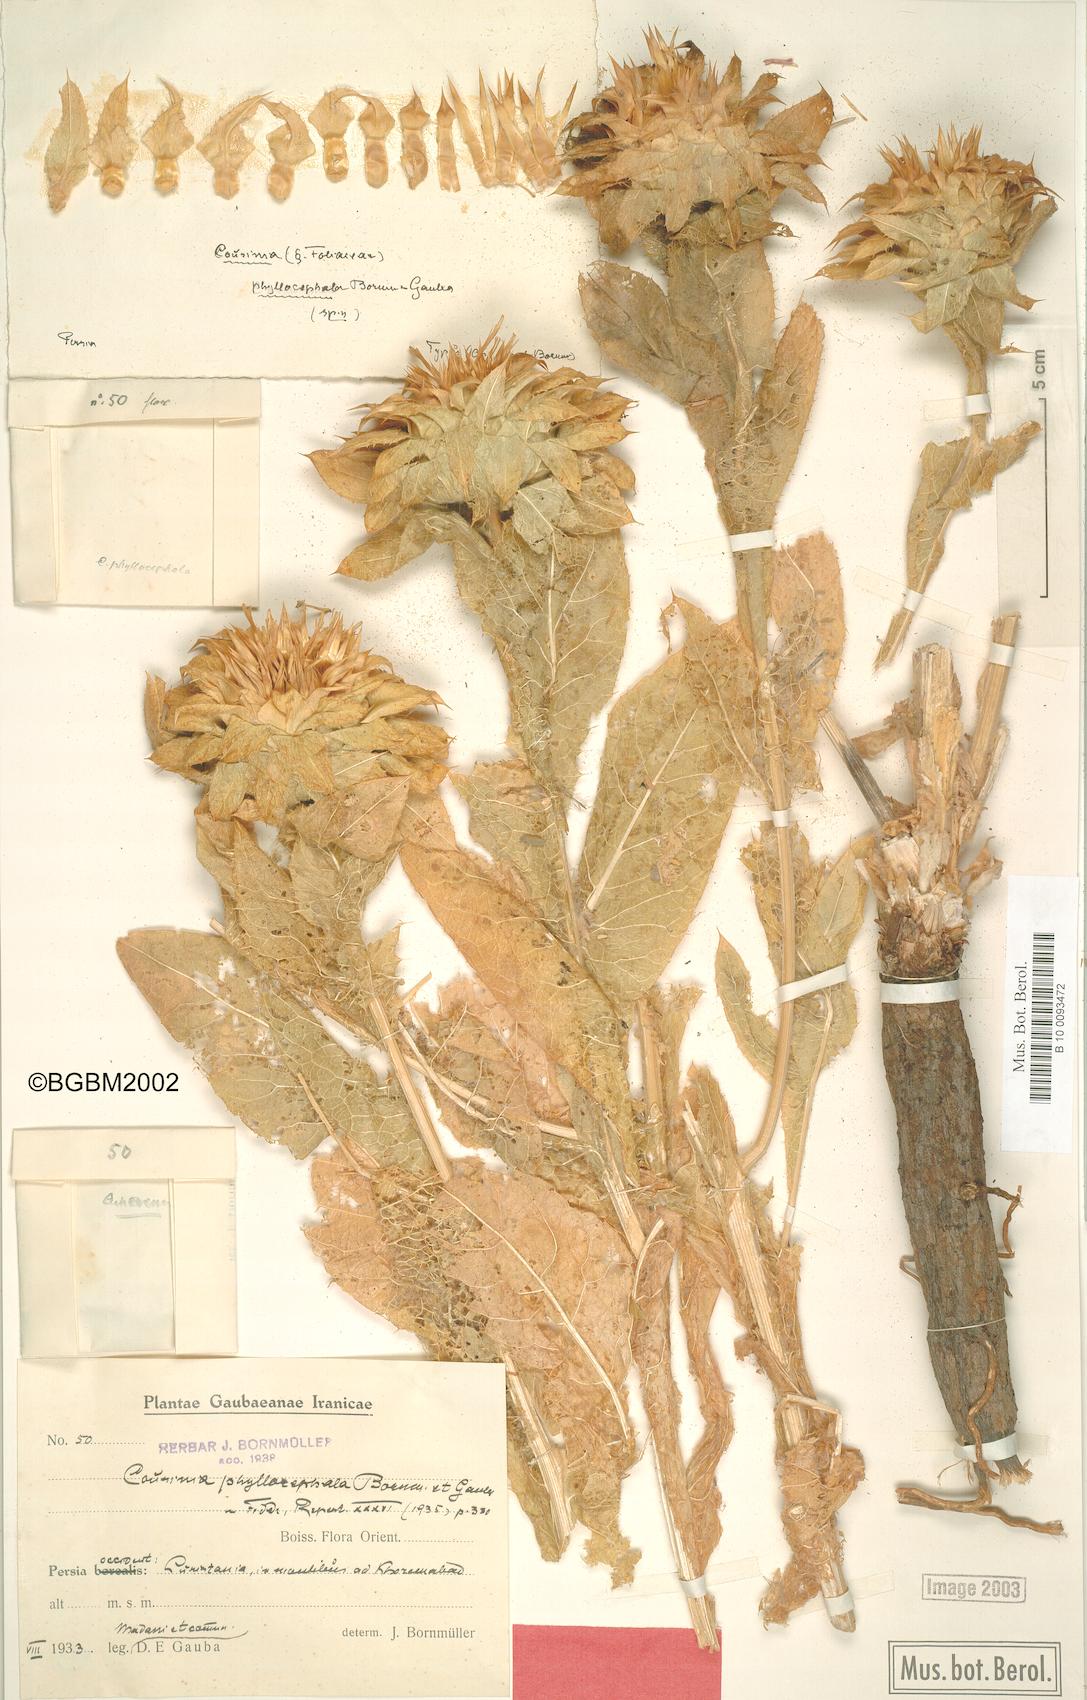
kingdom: Plantae
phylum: Tracheophyta
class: Magnoliopsida
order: Asterales
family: Asteraceae
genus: Cousinia
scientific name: Cousinia sagittata
